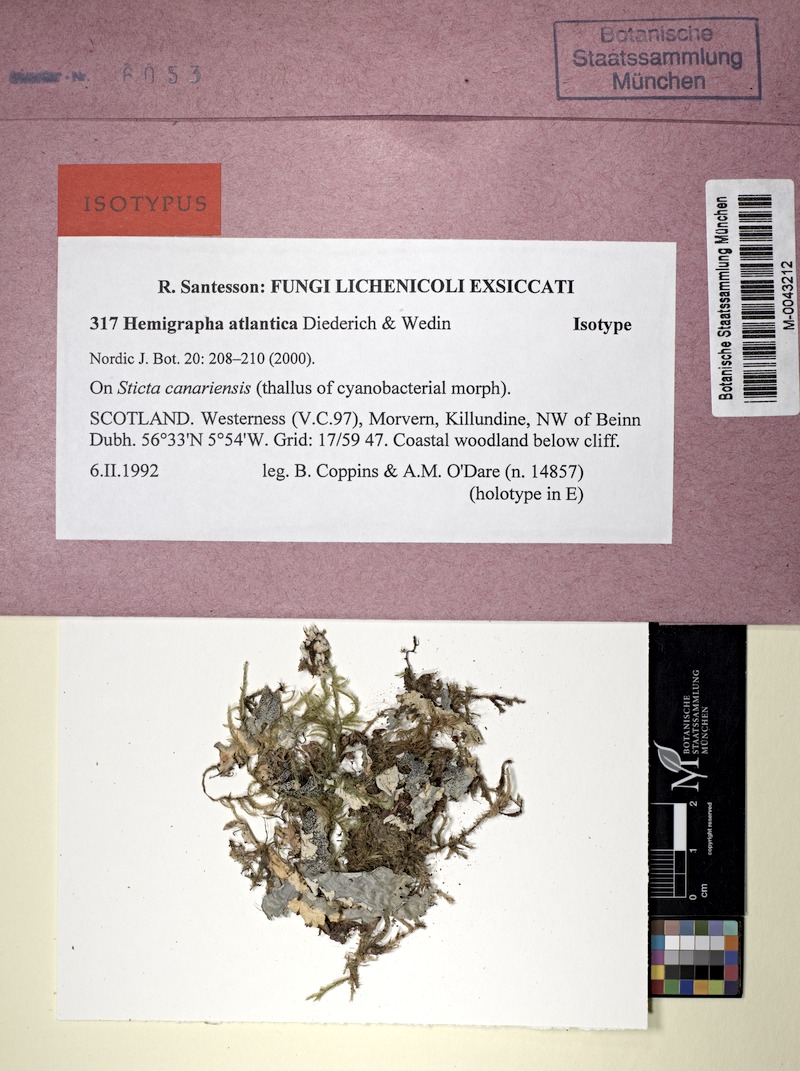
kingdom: Fungi
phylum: Ascomycota
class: Lecanoromycetes
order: Peltigerales
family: Lobariaceae
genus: Sticta
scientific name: Sticta canariensis
